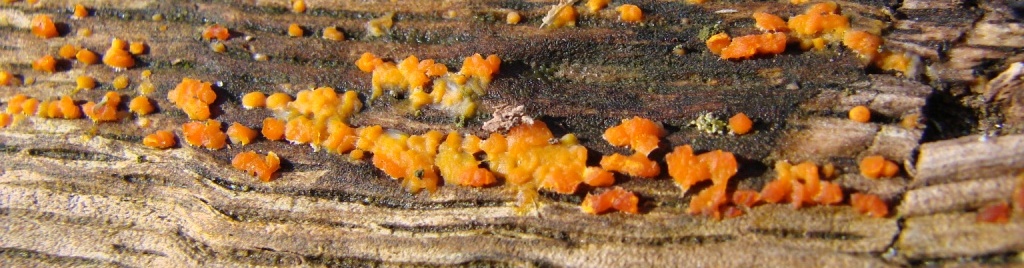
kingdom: Fungi
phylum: Basidiomycota
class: Dacrymycetes
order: Dacrymycetales
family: Dacrymycetaceae
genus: Dacrymyces
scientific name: Dacrymyces stillatus
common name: almindelig tåresvamp
